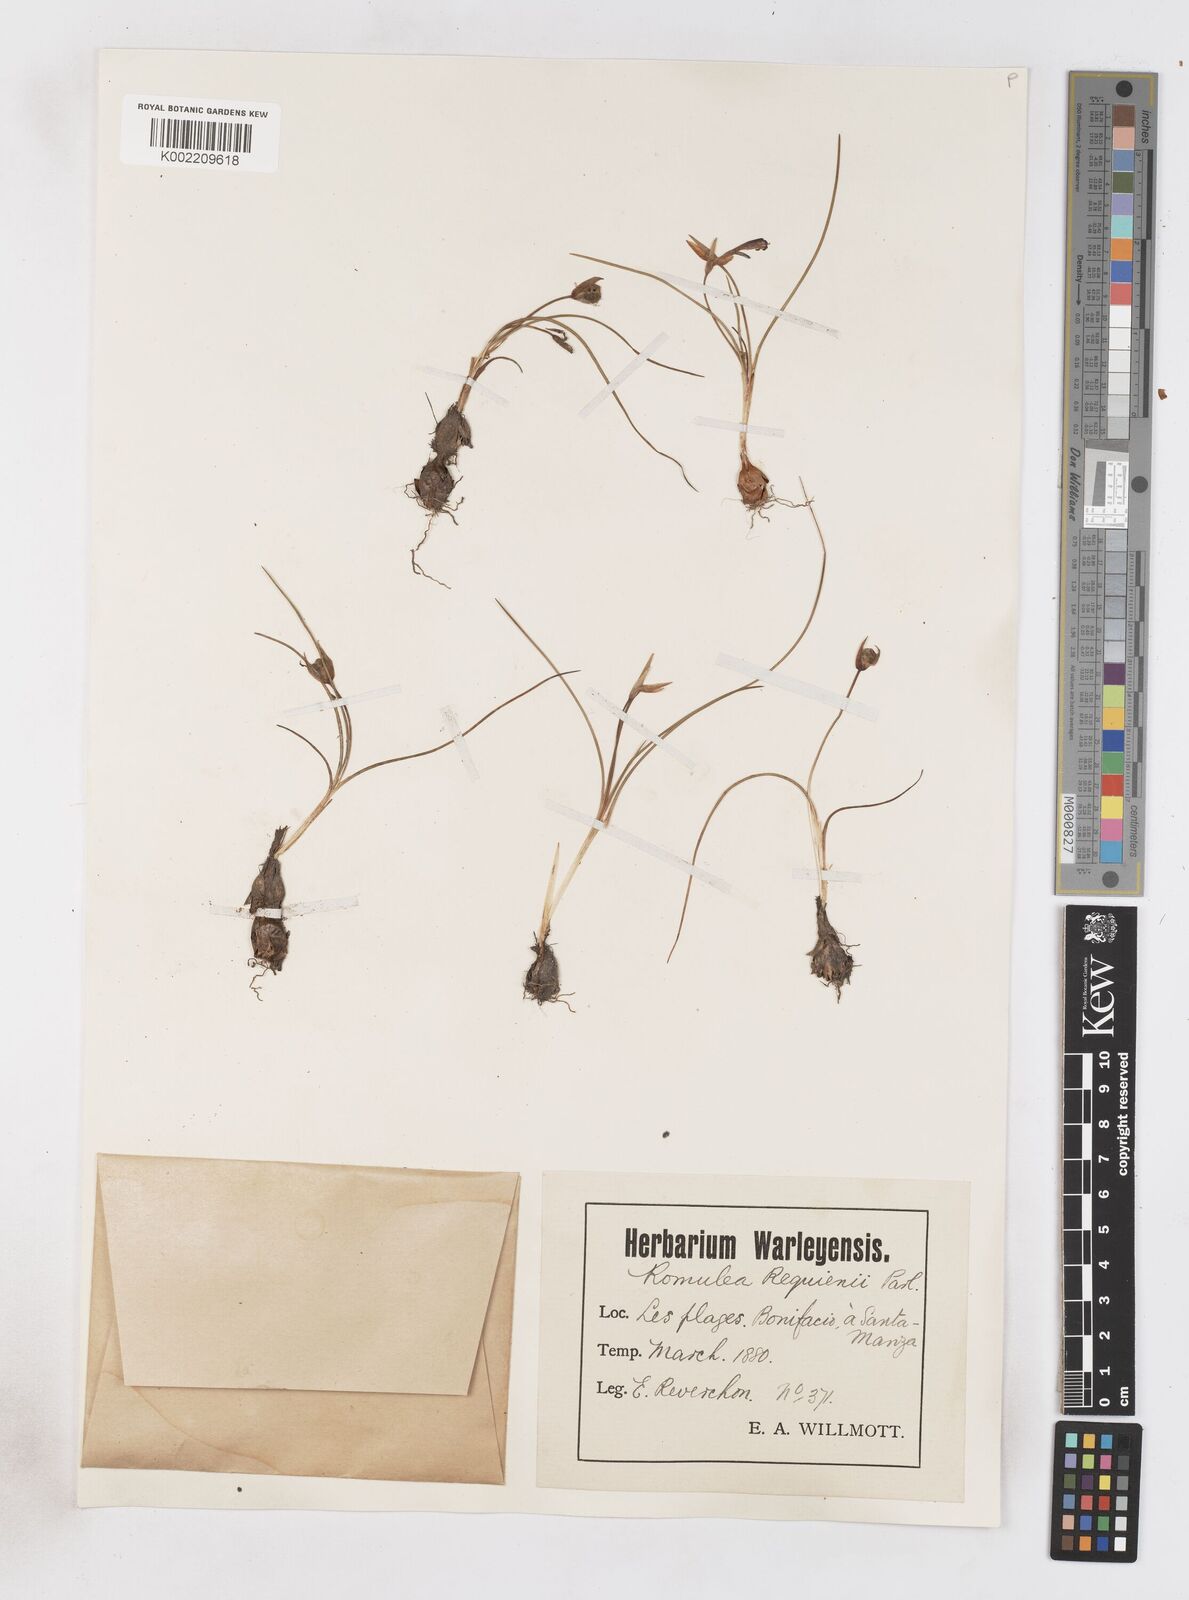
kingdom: Plantae
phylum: Tracheophyta
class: Liliopsida
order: Asparagales
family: Iridaceae
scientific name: Iridaceae
